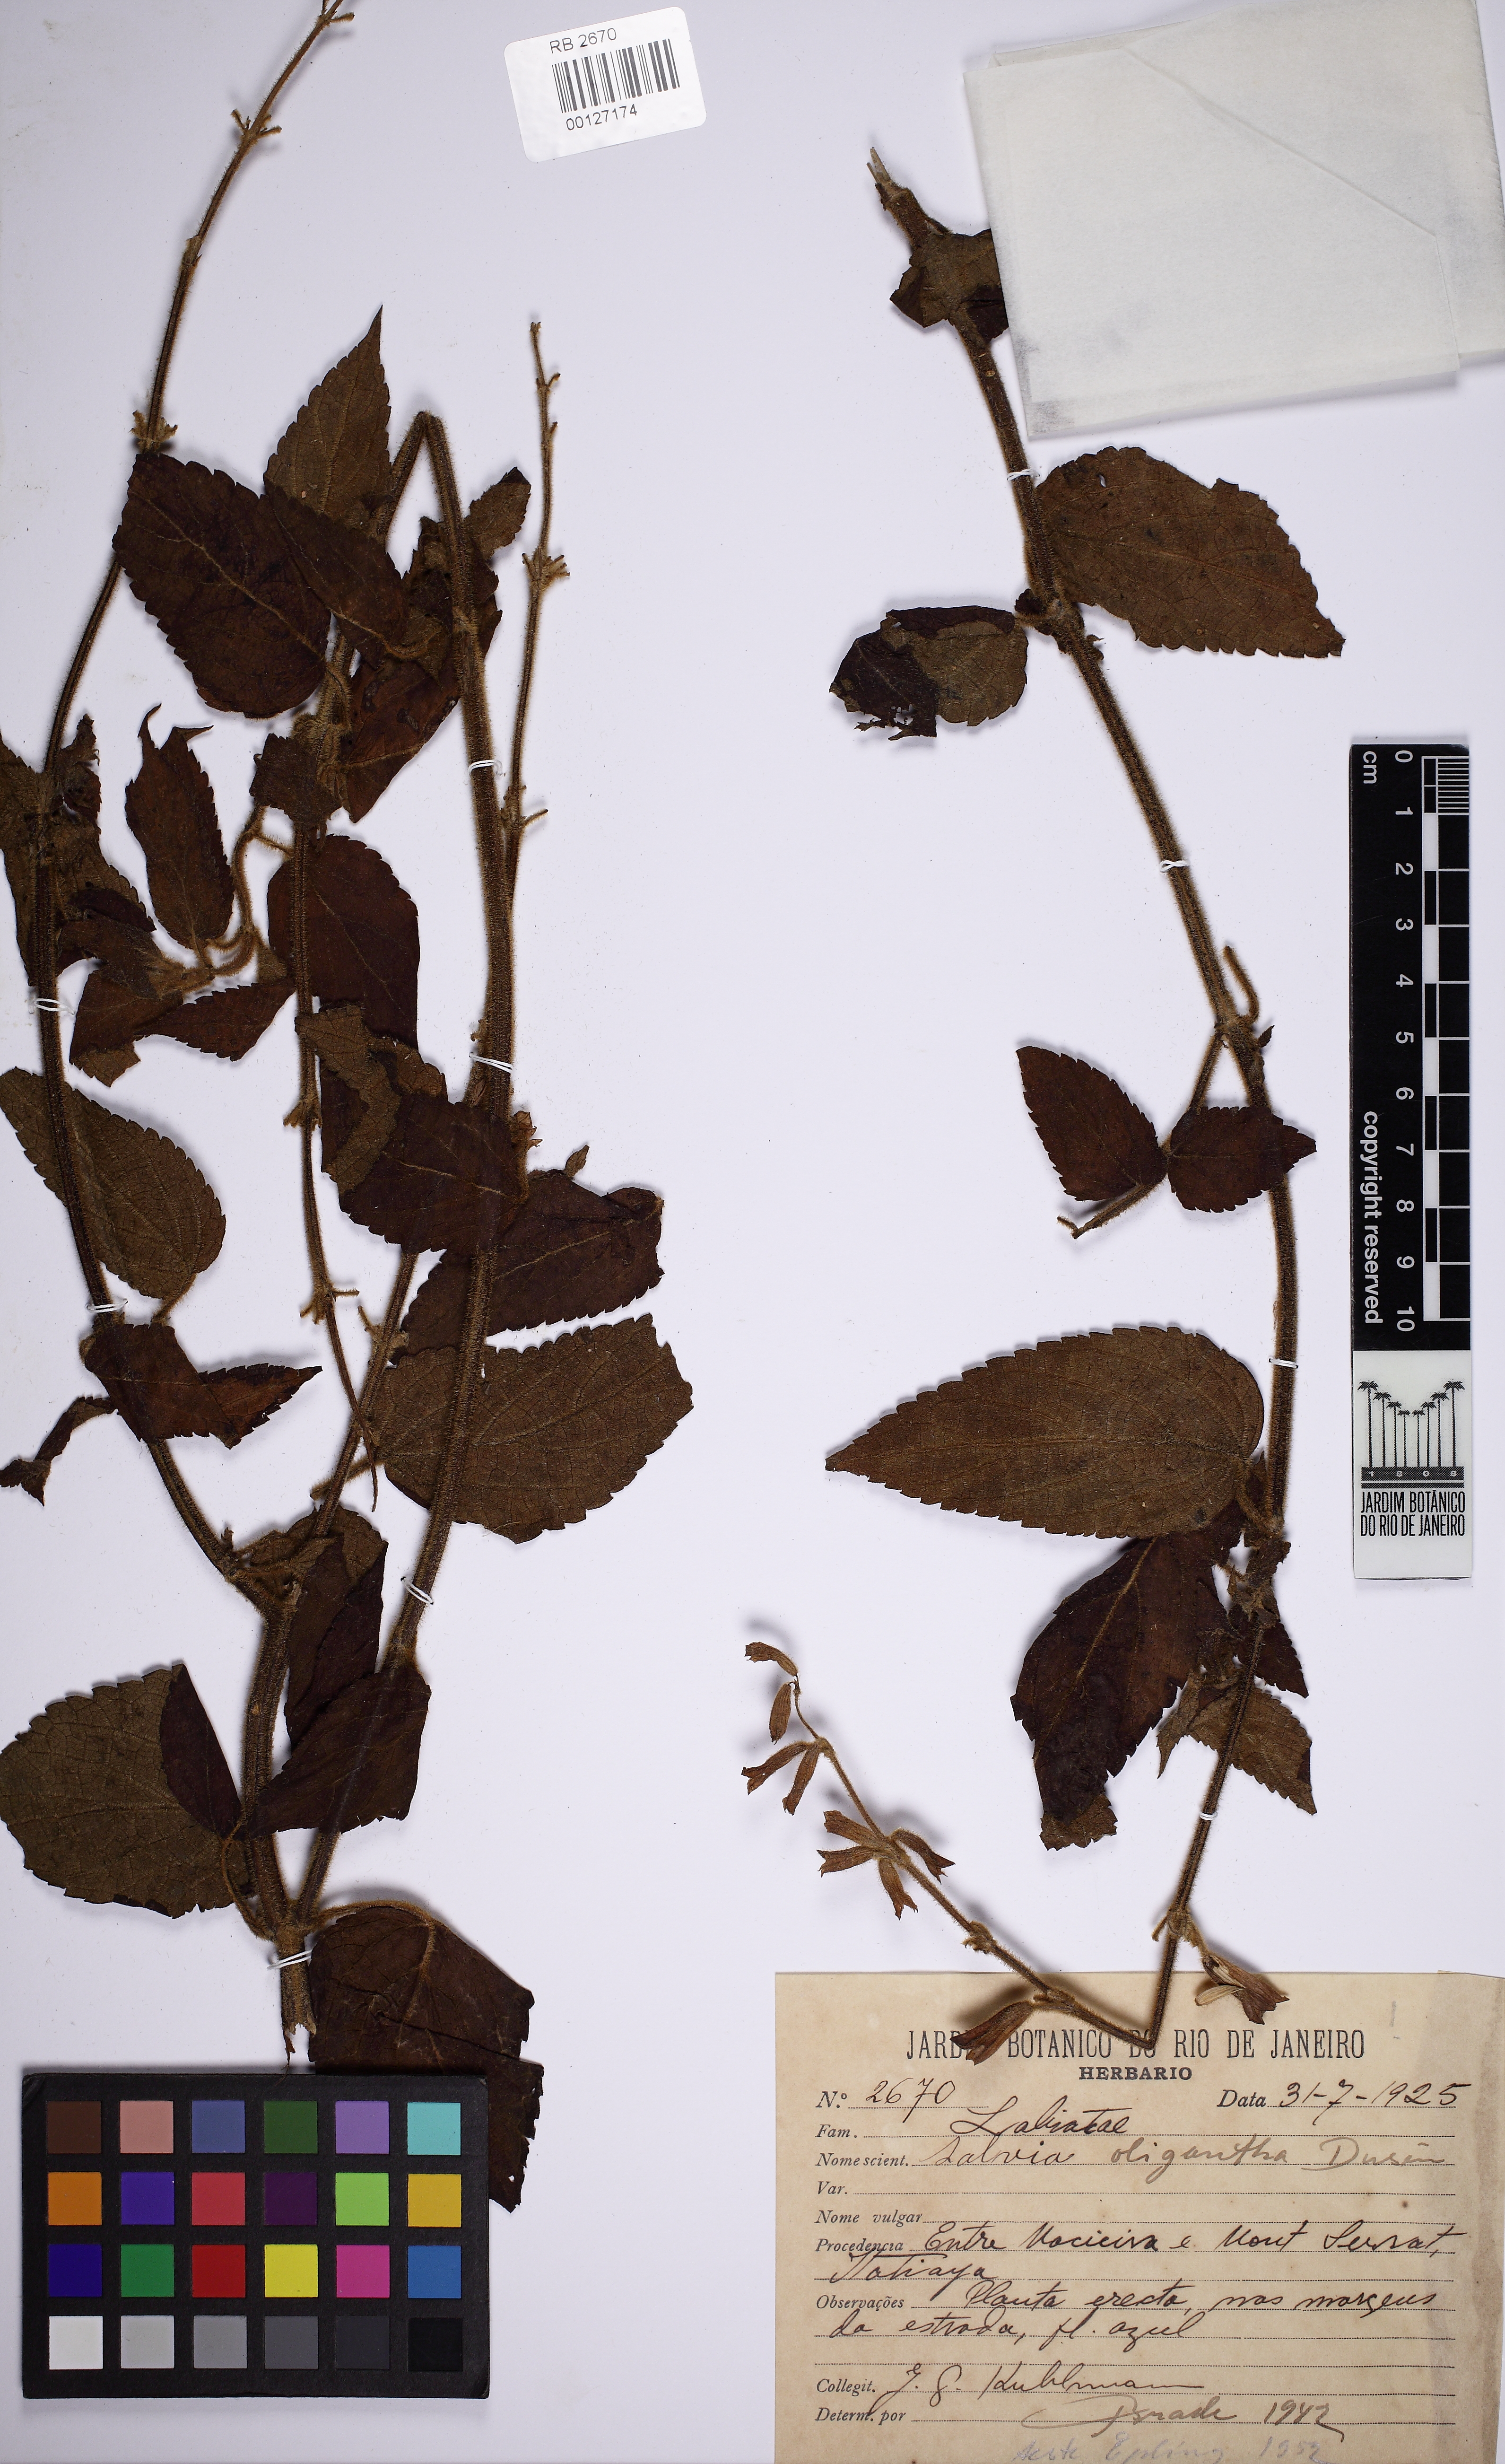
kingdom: Plantae
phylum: Tracheophyta
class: Magnoliopsida
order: Lamiales
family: Lamiaceae
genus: Salvia
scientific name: Salvia oligantha
